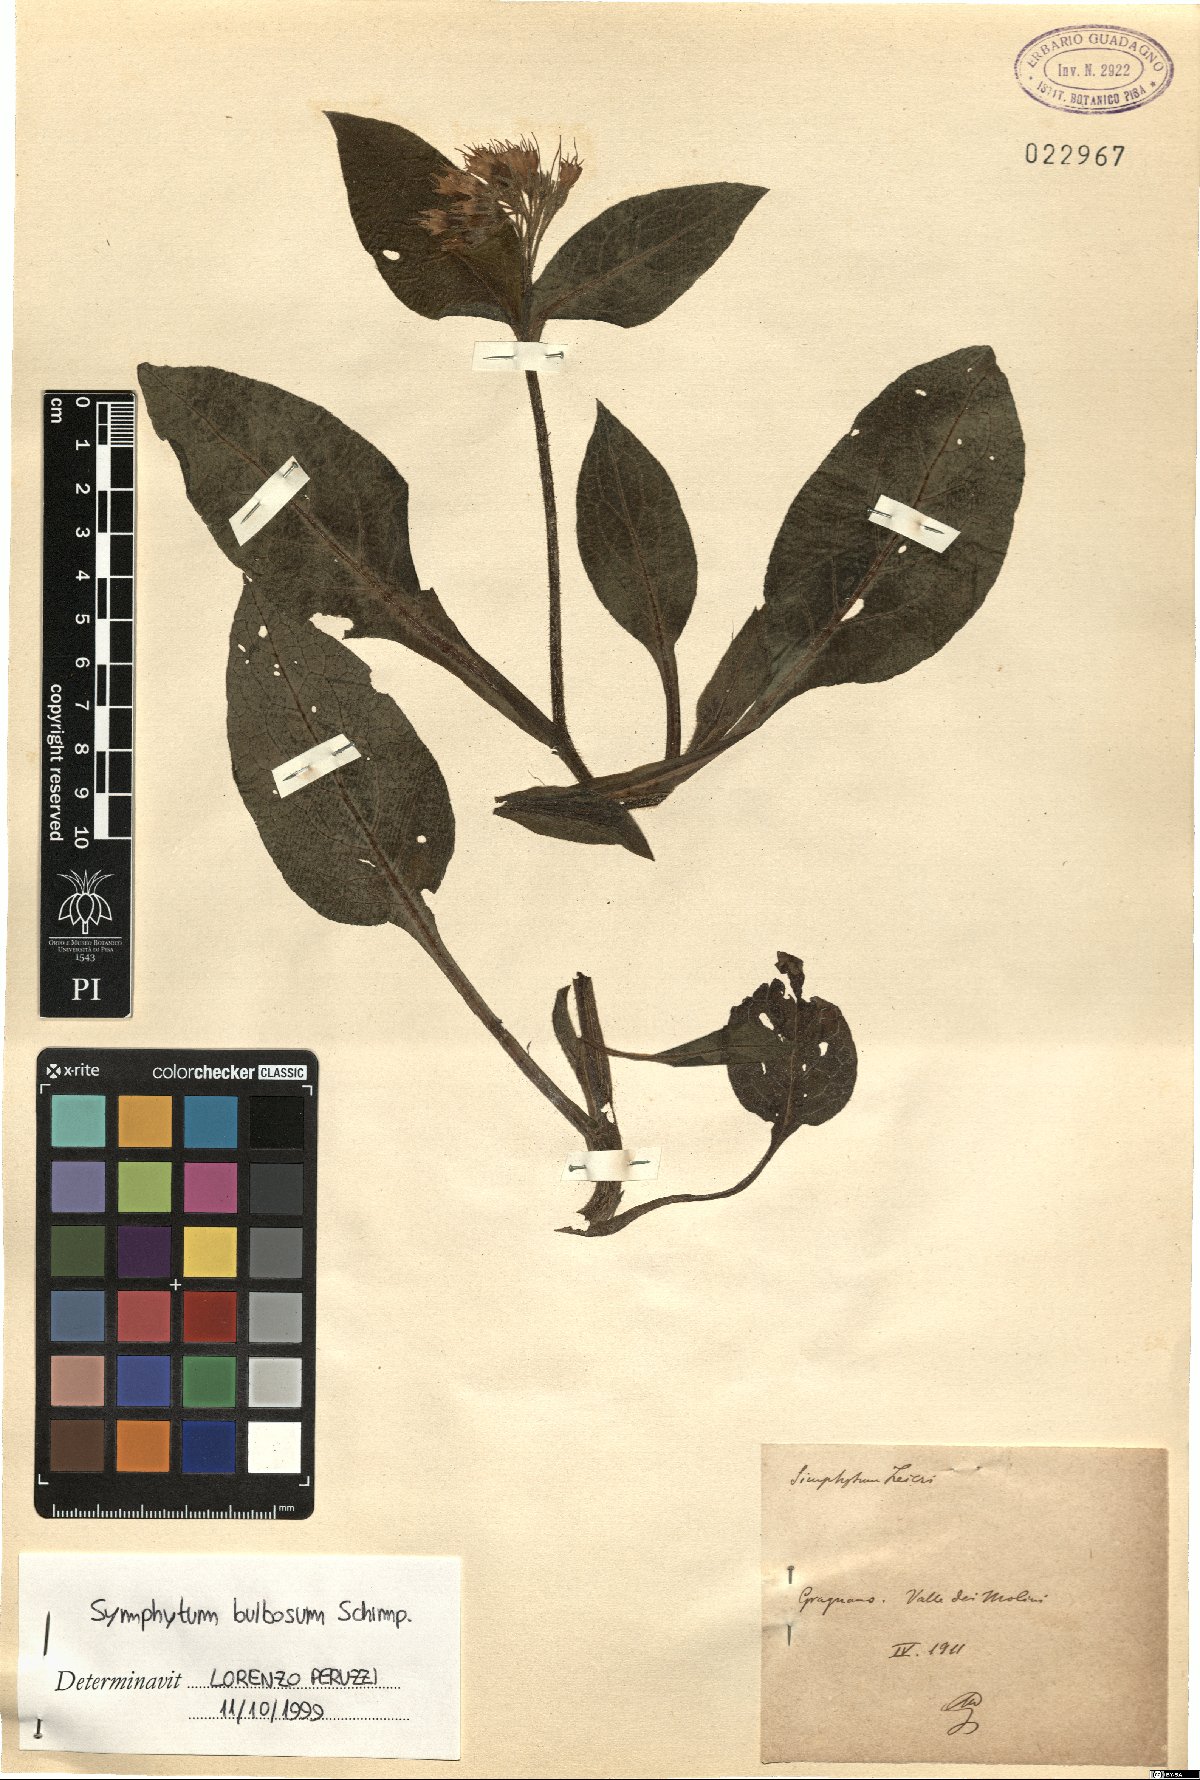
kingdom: Plantae
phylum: Tracheophyta
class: Magnoliopsida
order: Boraginales
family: Boraginaceae
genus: Symphytum
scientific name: Symphytum bulbosum
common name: Bulbous comfrey
